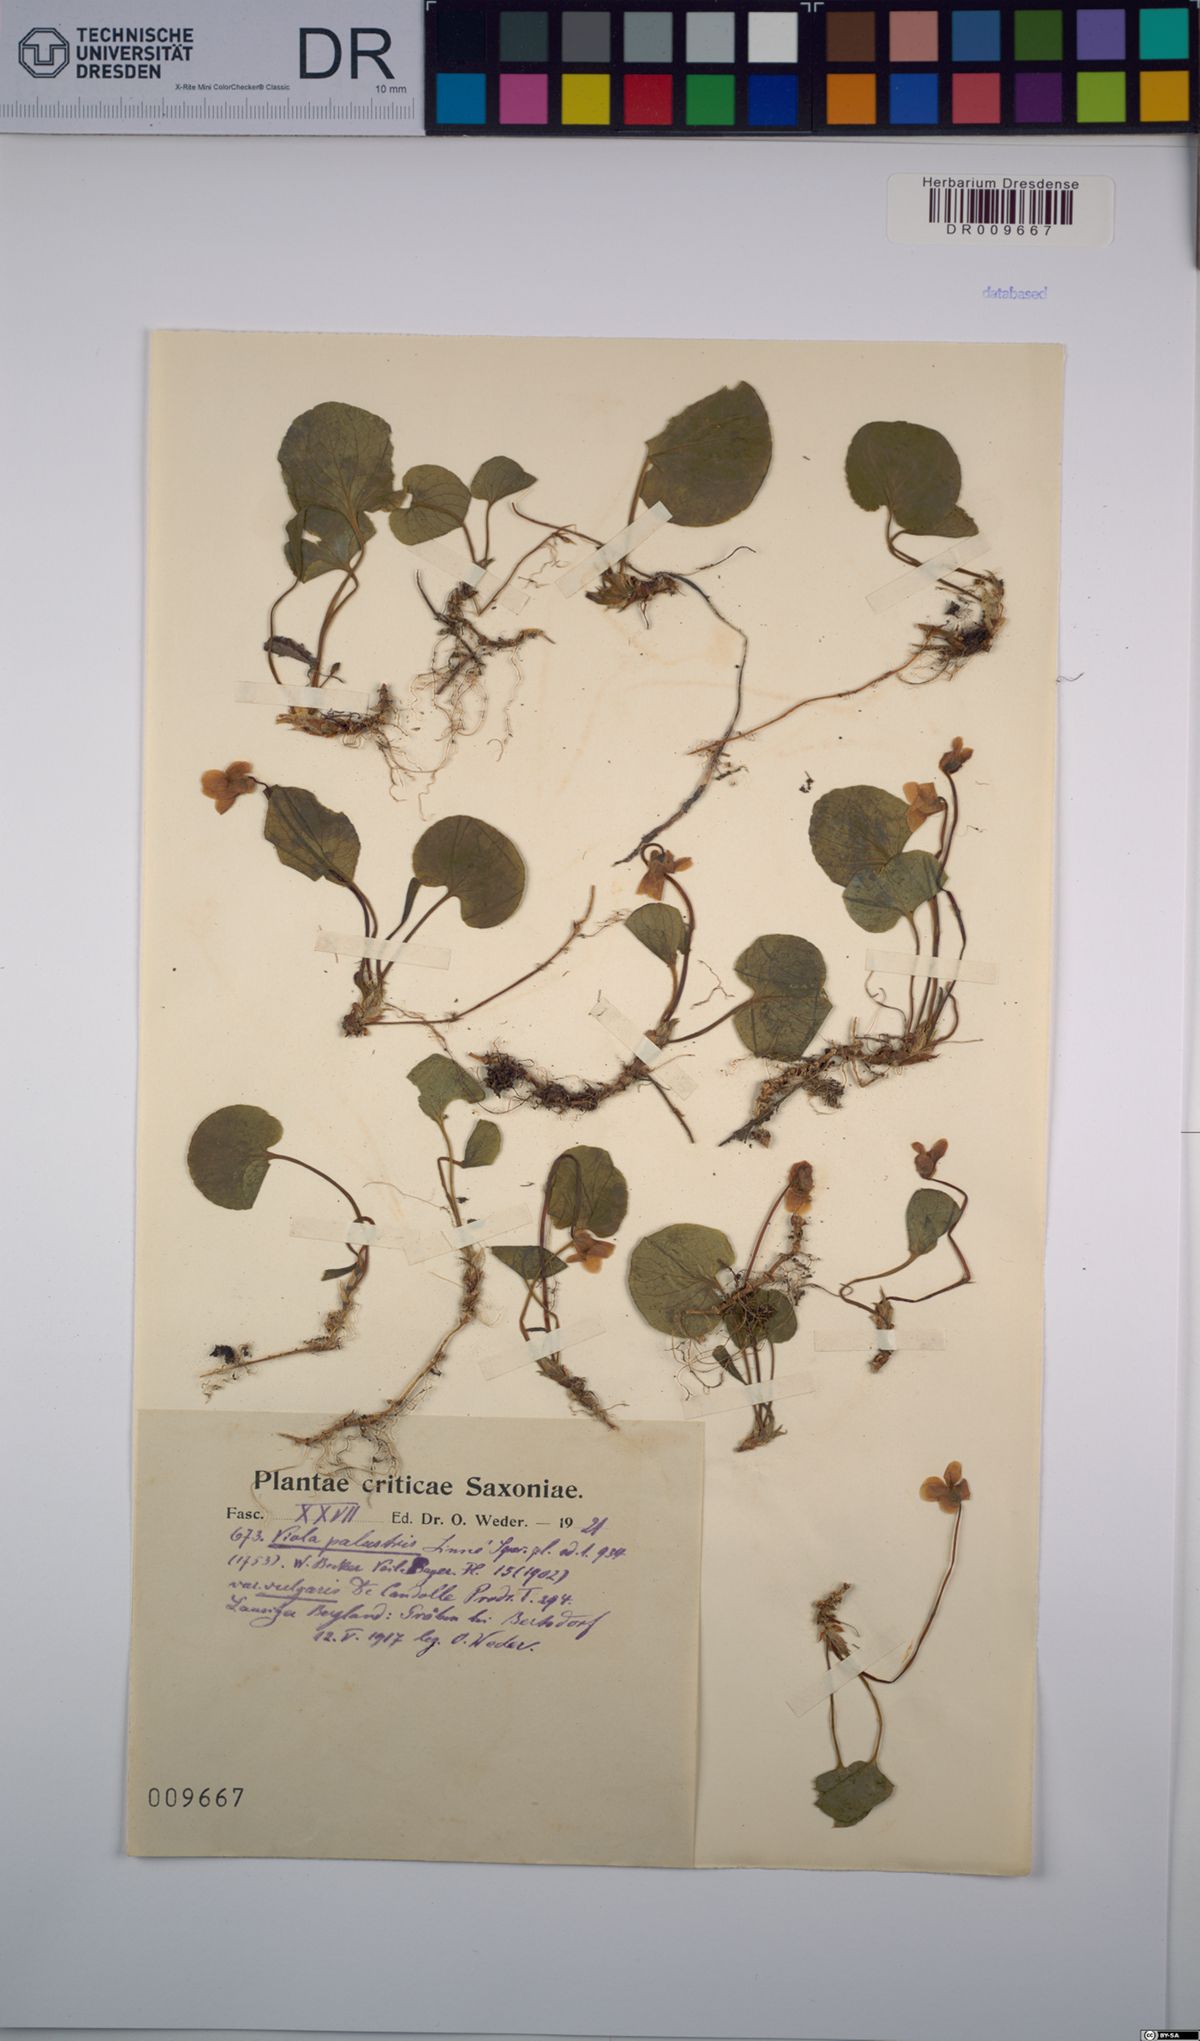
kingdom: Plantae
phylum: Tracheophyta
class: Magnoliopsida
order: Malpighiales
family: Violaceae
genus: Viola
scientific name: Viola palustris
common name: Marsh violet
